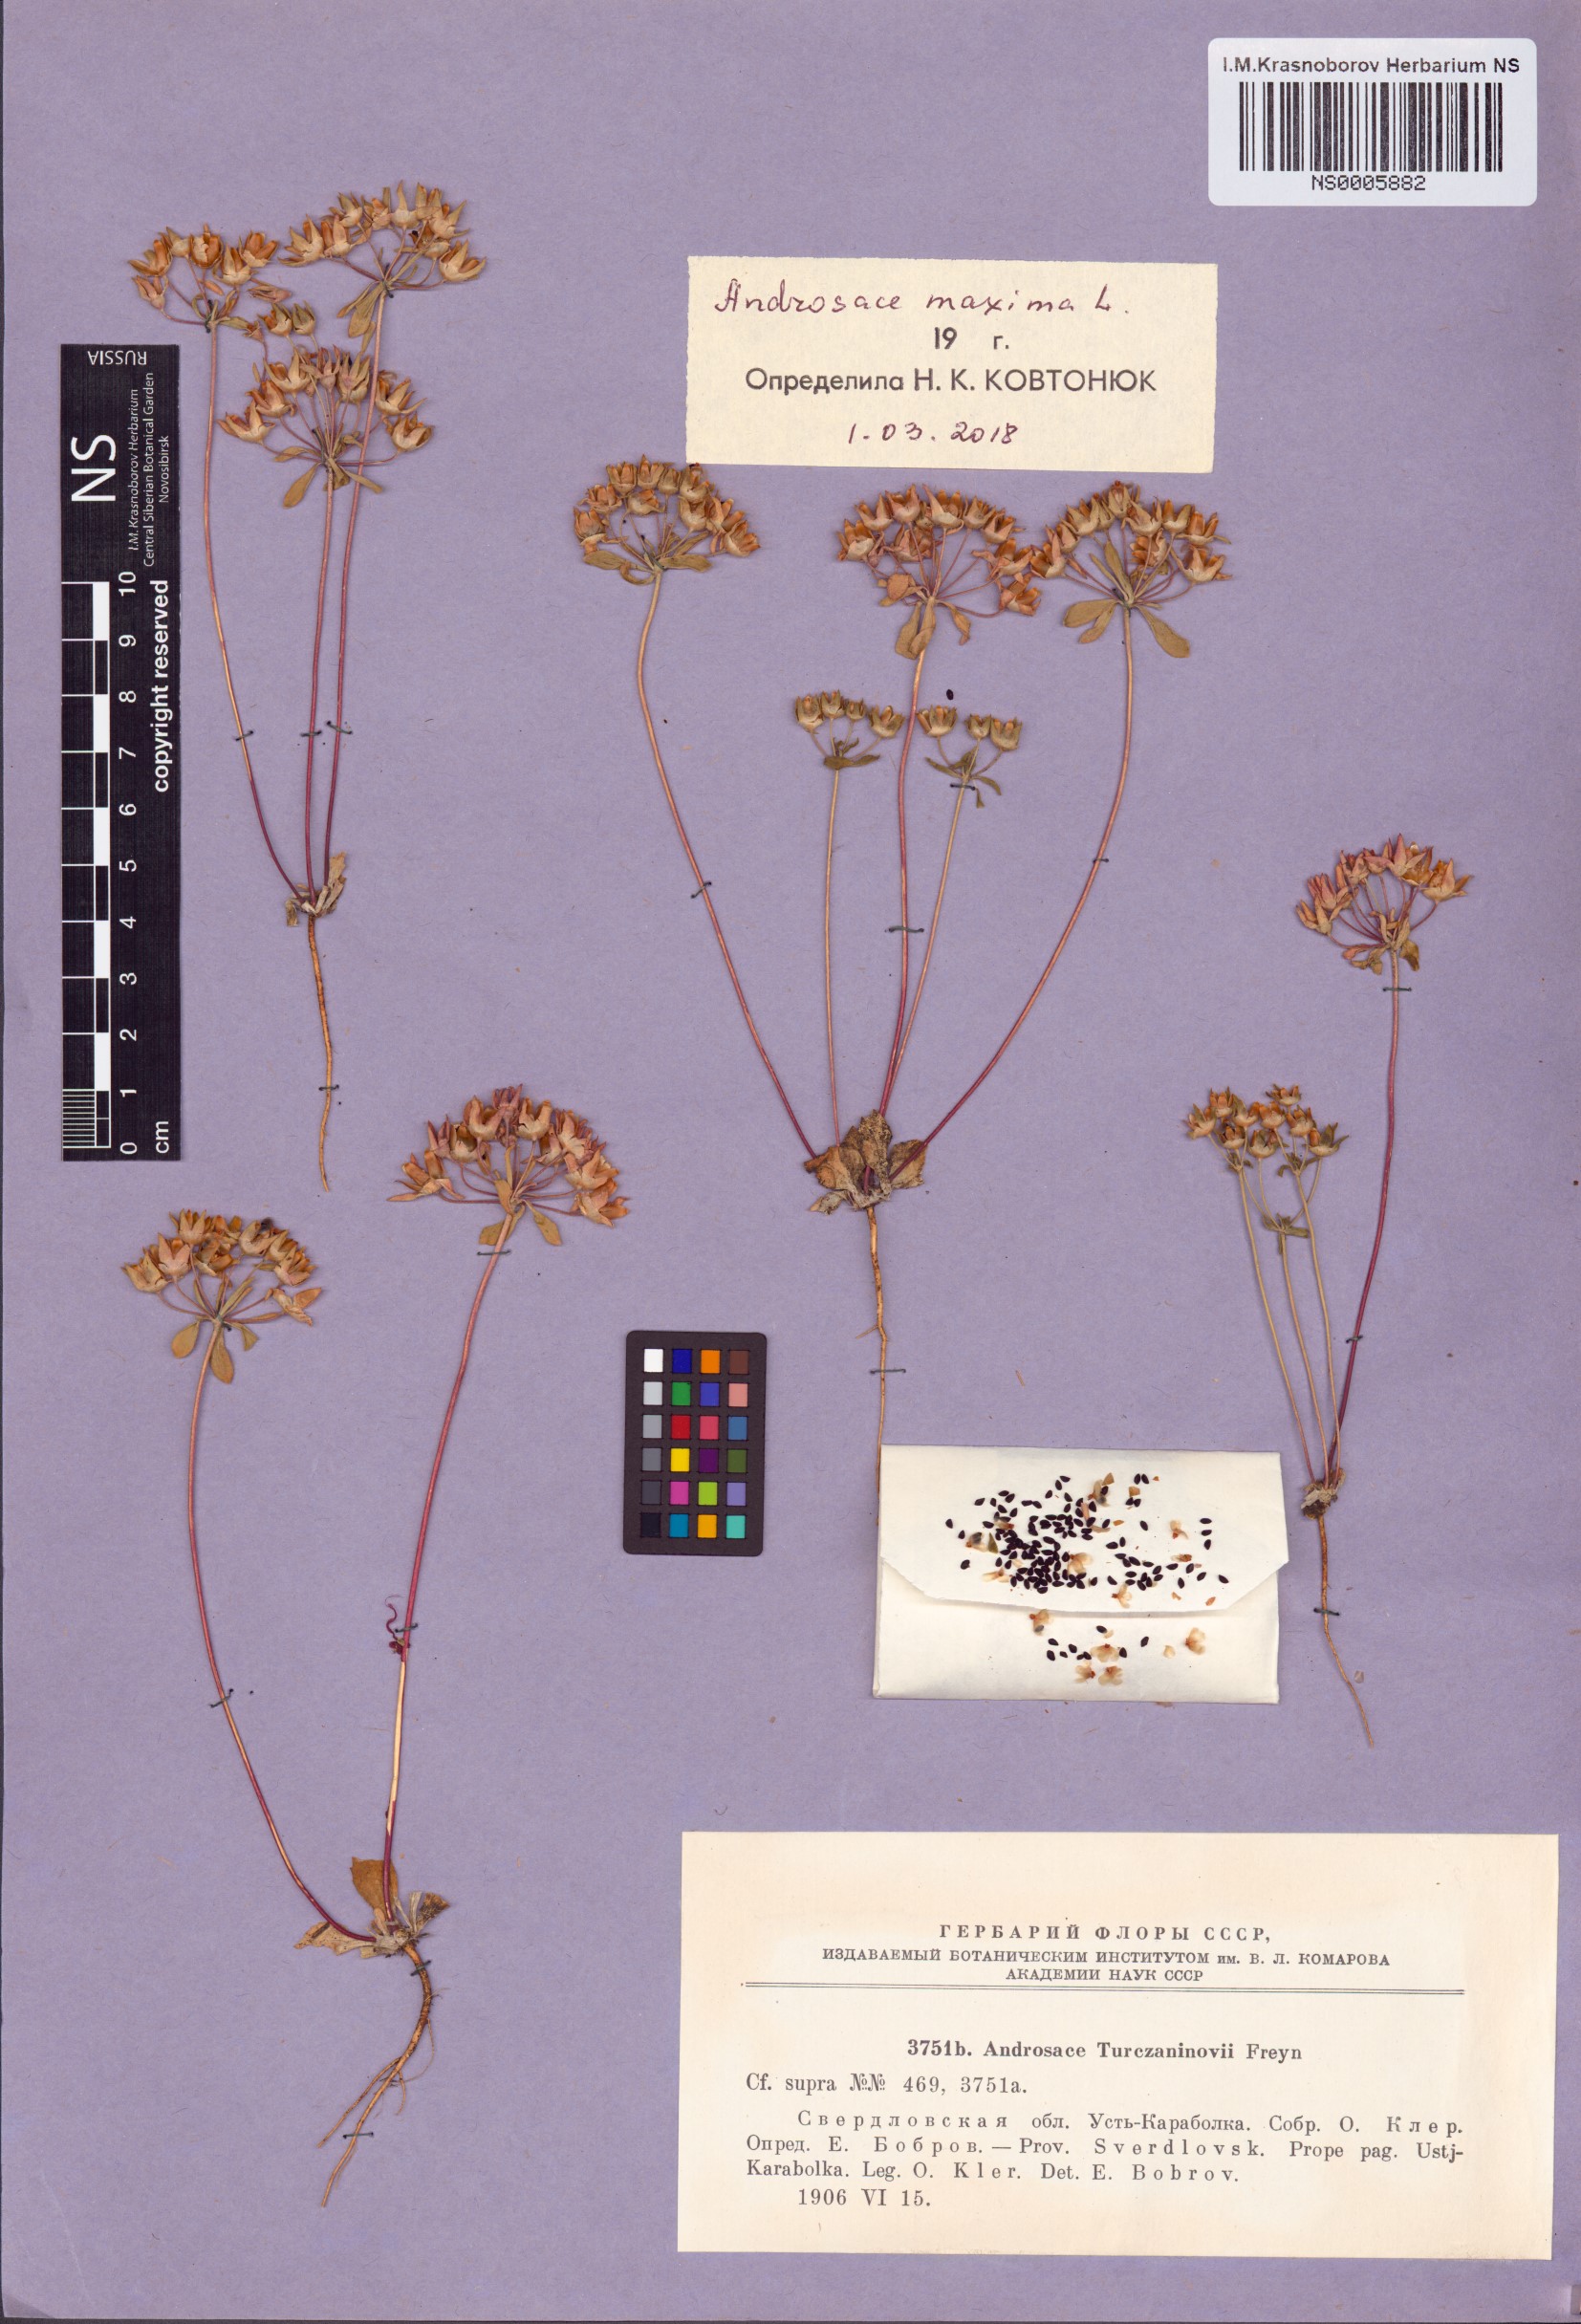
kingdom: Plantae
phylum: Tracheophyta
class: Magnoliopsida
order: Ericales
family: Primulaceae
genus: Androsace
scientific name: Androsace maxima
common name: Annual androsace
